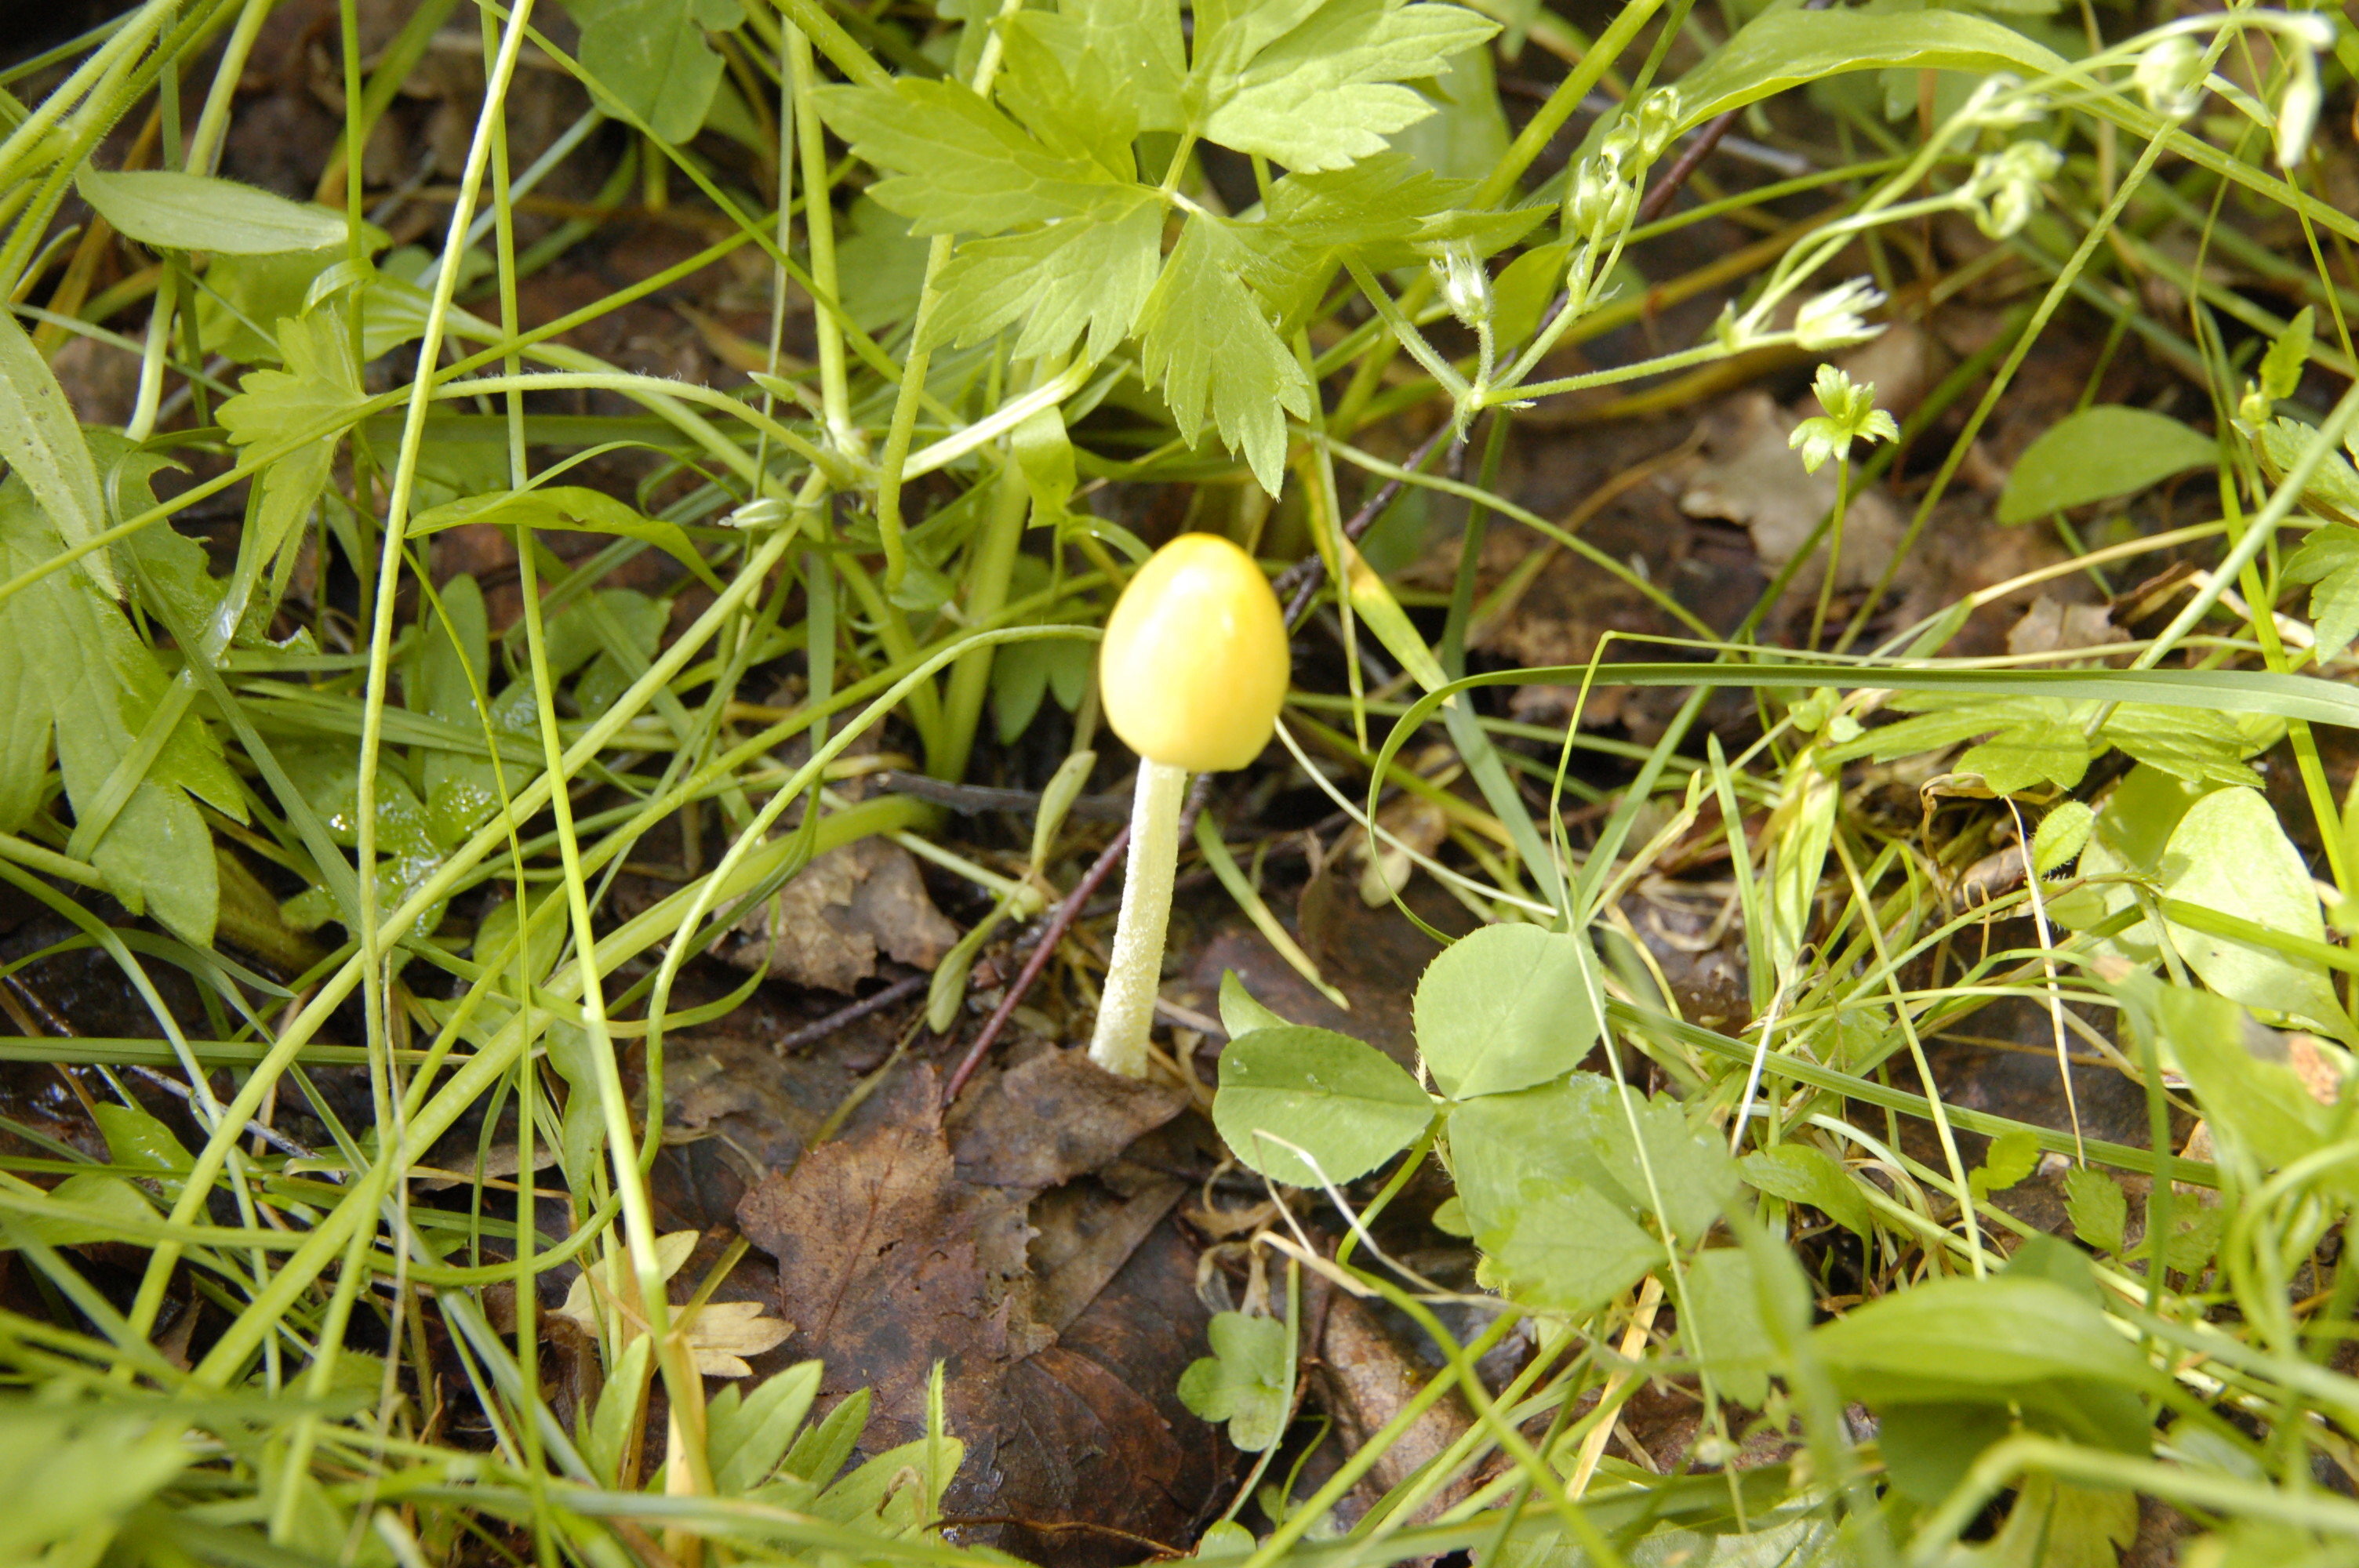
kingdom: Fungi
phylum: Basidiomycota
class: Agaricomycetes
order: Agaricales
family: Bolbitiaceae
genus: Bolbitius
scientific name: Bolbitius titubans
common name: Yellow fieldcap
